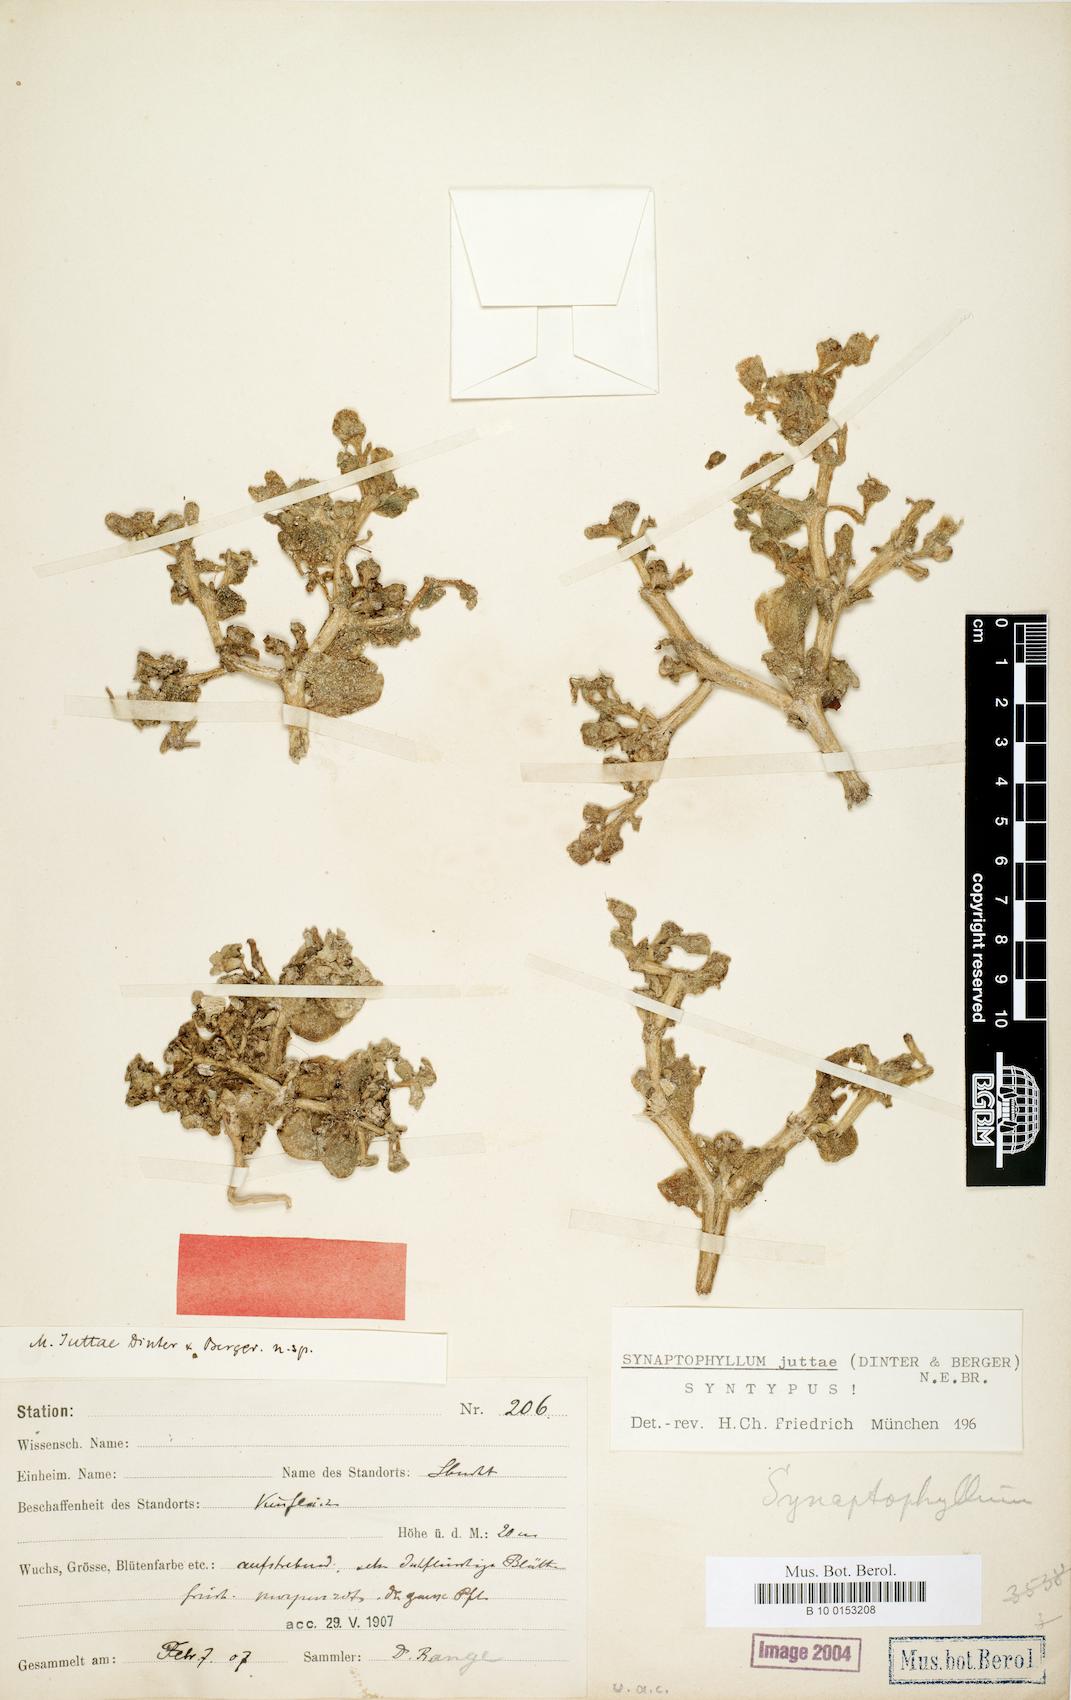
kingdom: Plantae
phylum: Tracheophyta
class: Magnoliopsida
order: Caryophyllales
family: Aizoaceae
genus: Mesembryanthemum
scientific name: Mesembryanthemum juttae
